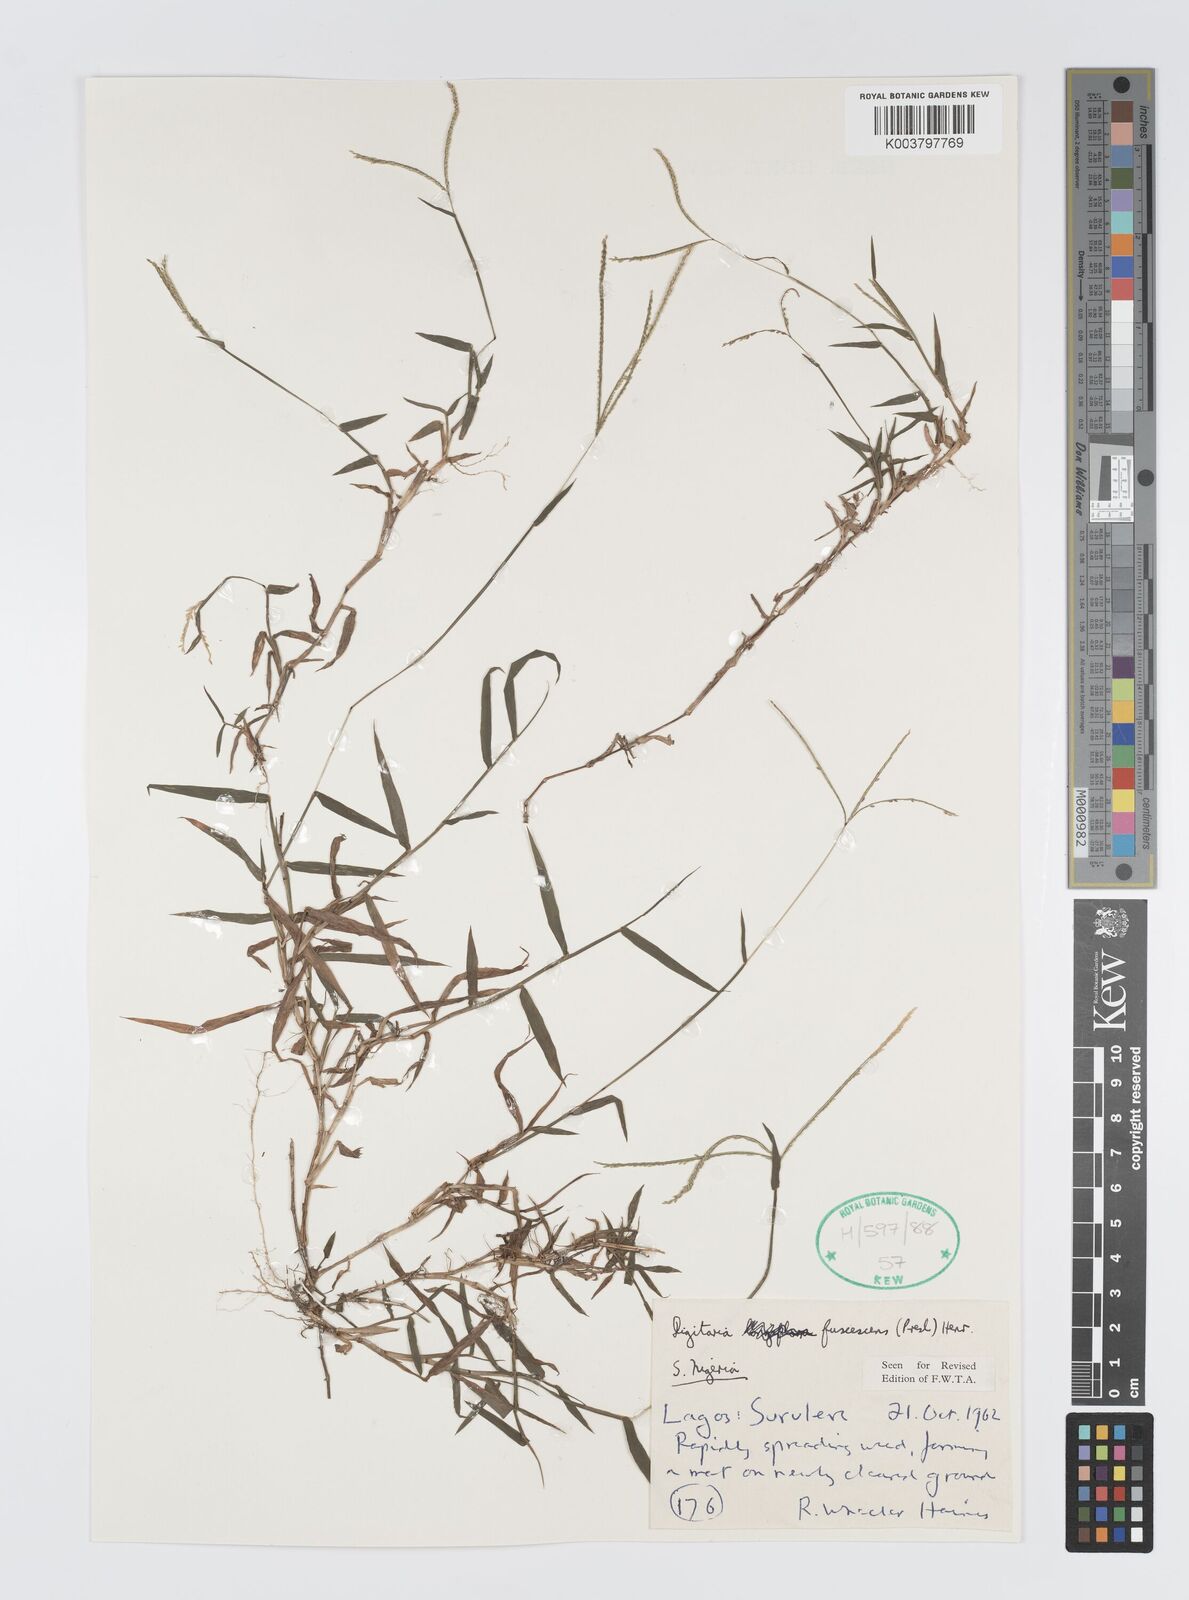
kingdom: Plantae
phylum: Tracheophyta
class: Liliopsida
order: Poales
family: Poaceae
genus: Digitaria
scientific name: Digitaria fuscescens
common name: Yellow crabgrass
